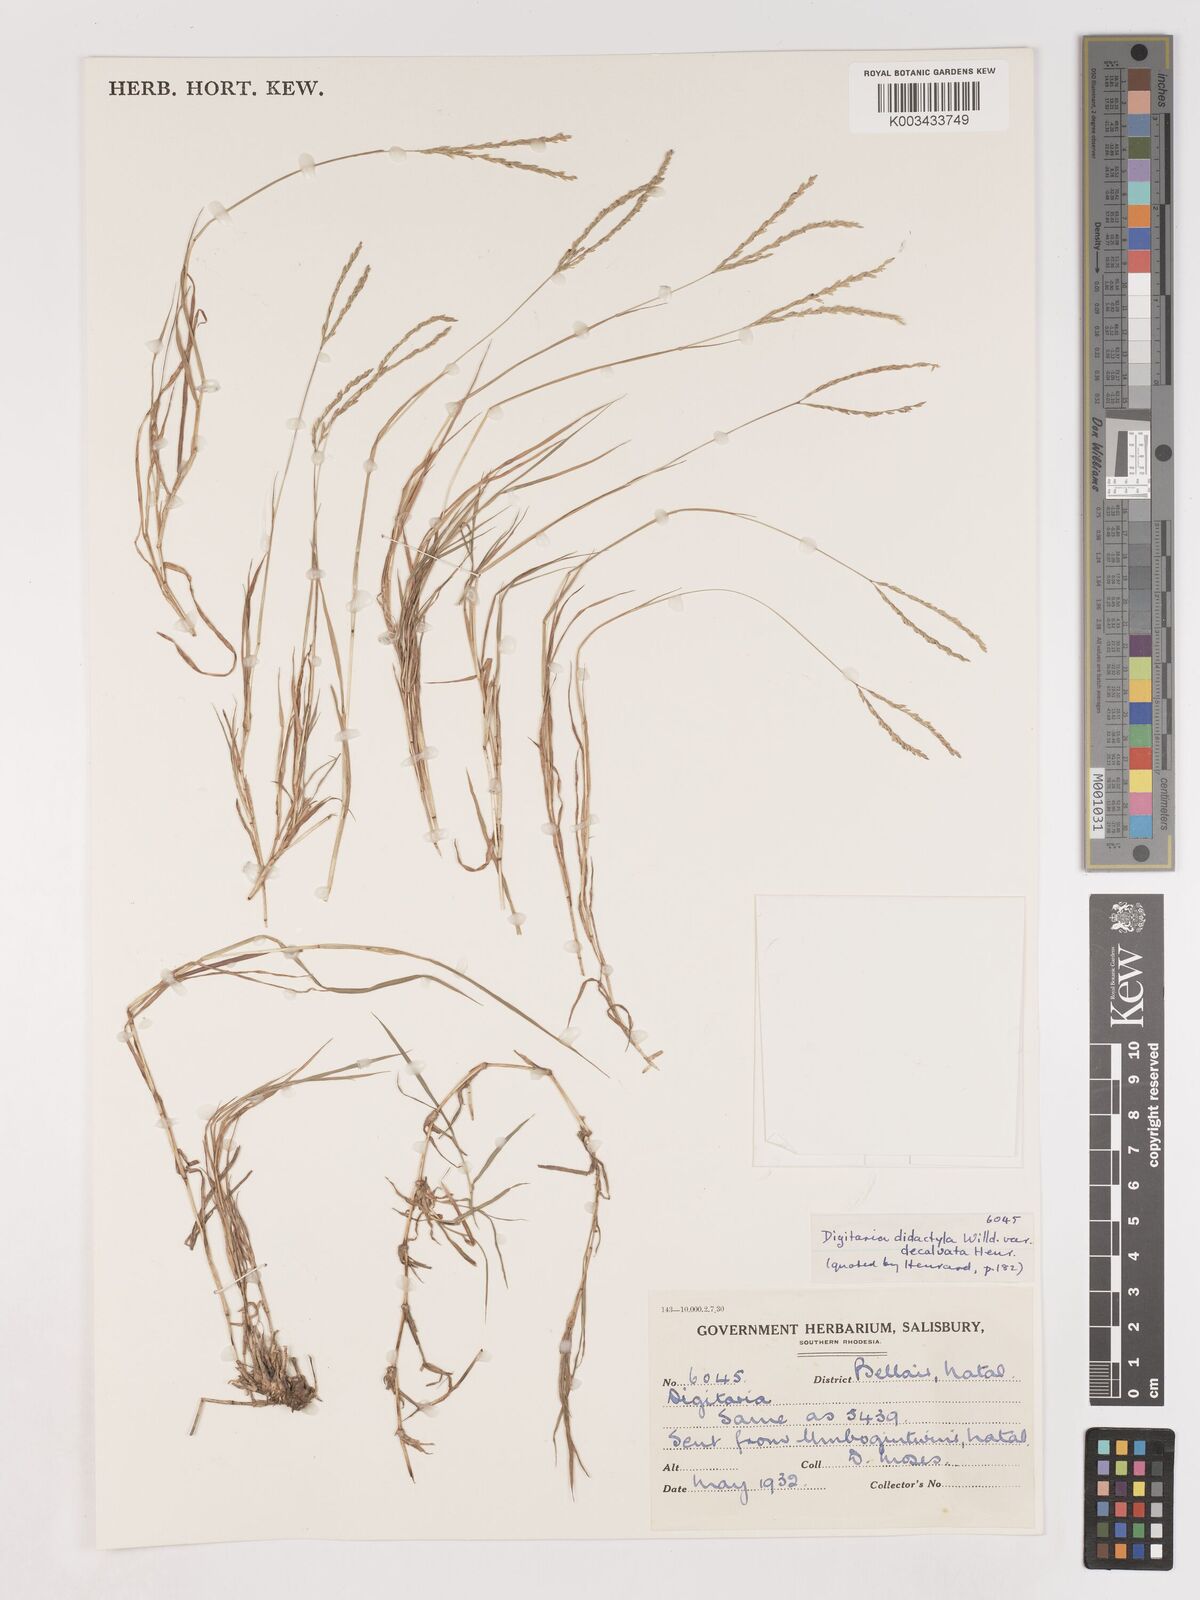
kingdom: Plantae
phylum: Tracheophyta
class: Liliopsida
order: Poales
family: Poaceae
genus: Digitaria
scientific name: Digitaria didactyla
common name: Blue couch
